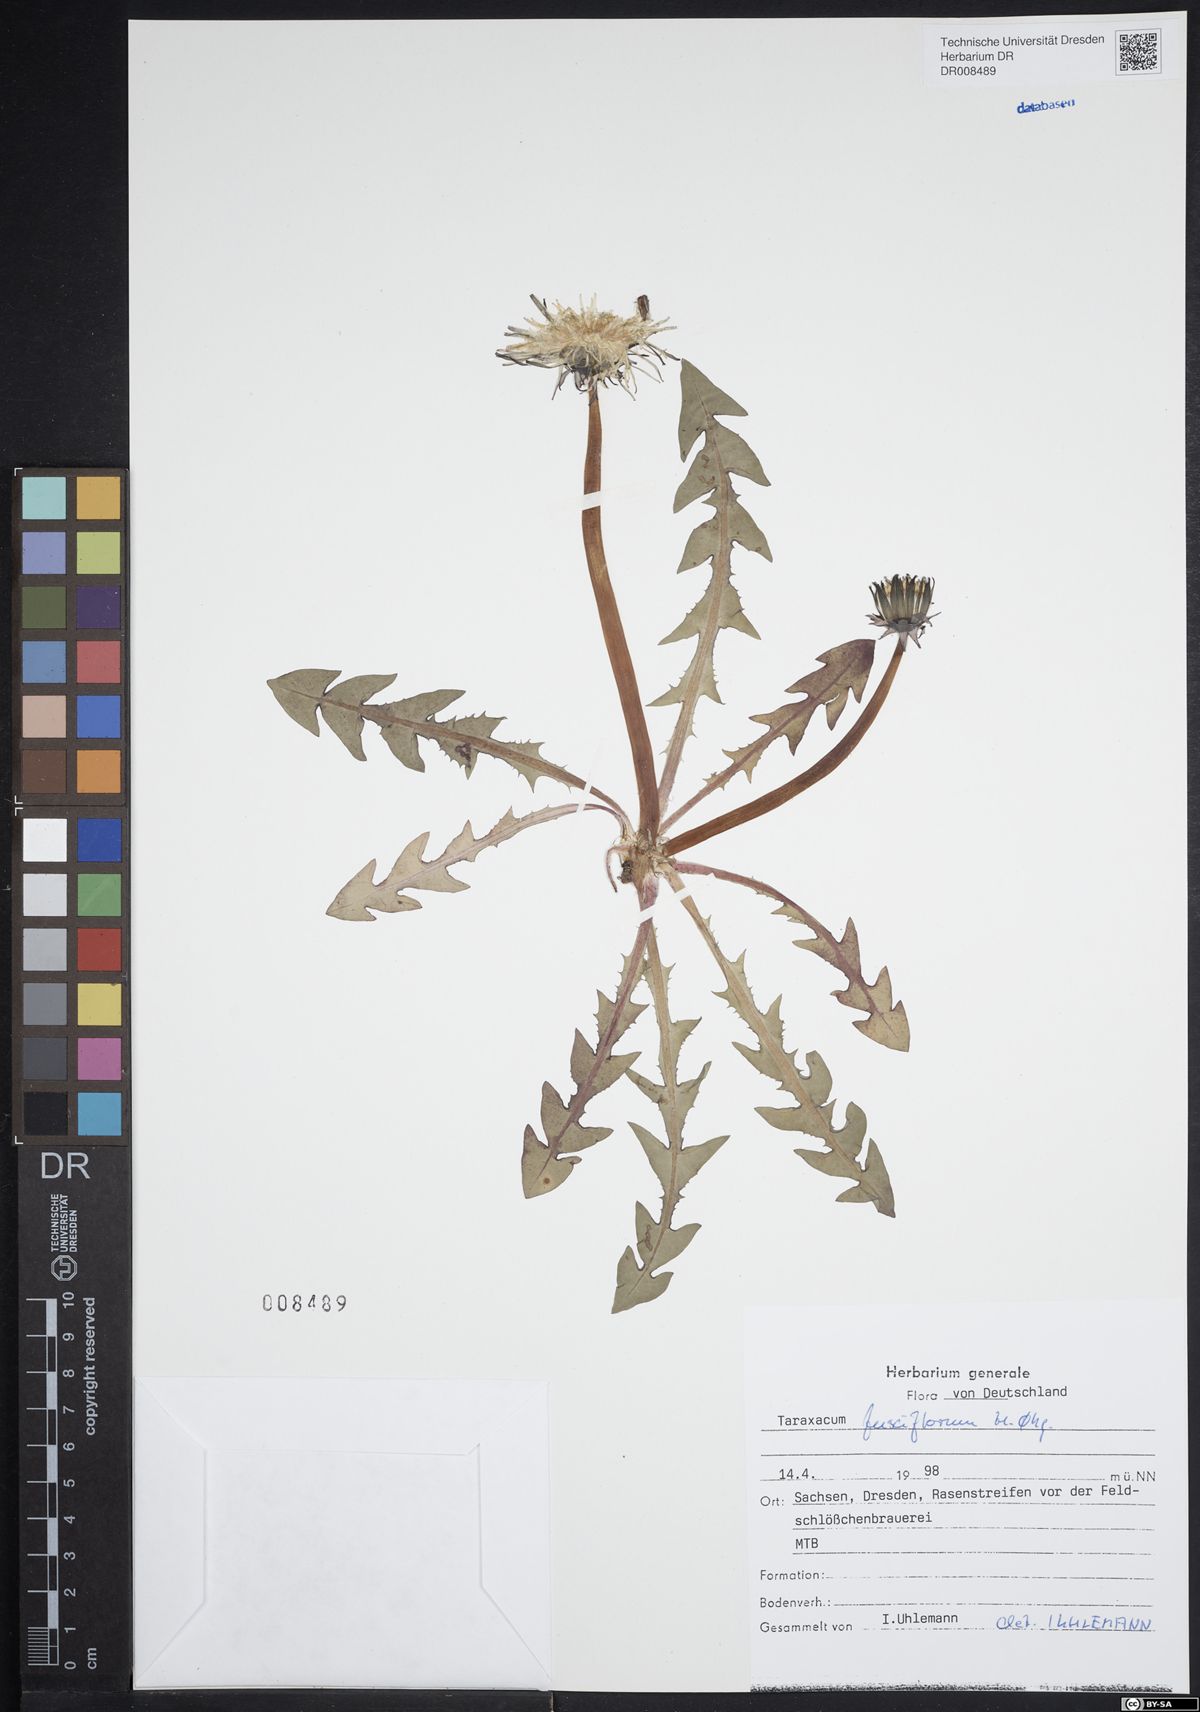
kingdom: Plantae
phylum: Tracheophyta
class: Magnoliopsida
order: Asterales
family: Asteraceae
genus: Taraxacum
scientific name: Taraxacum fusciflorum
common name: Brown-striped dandelion
